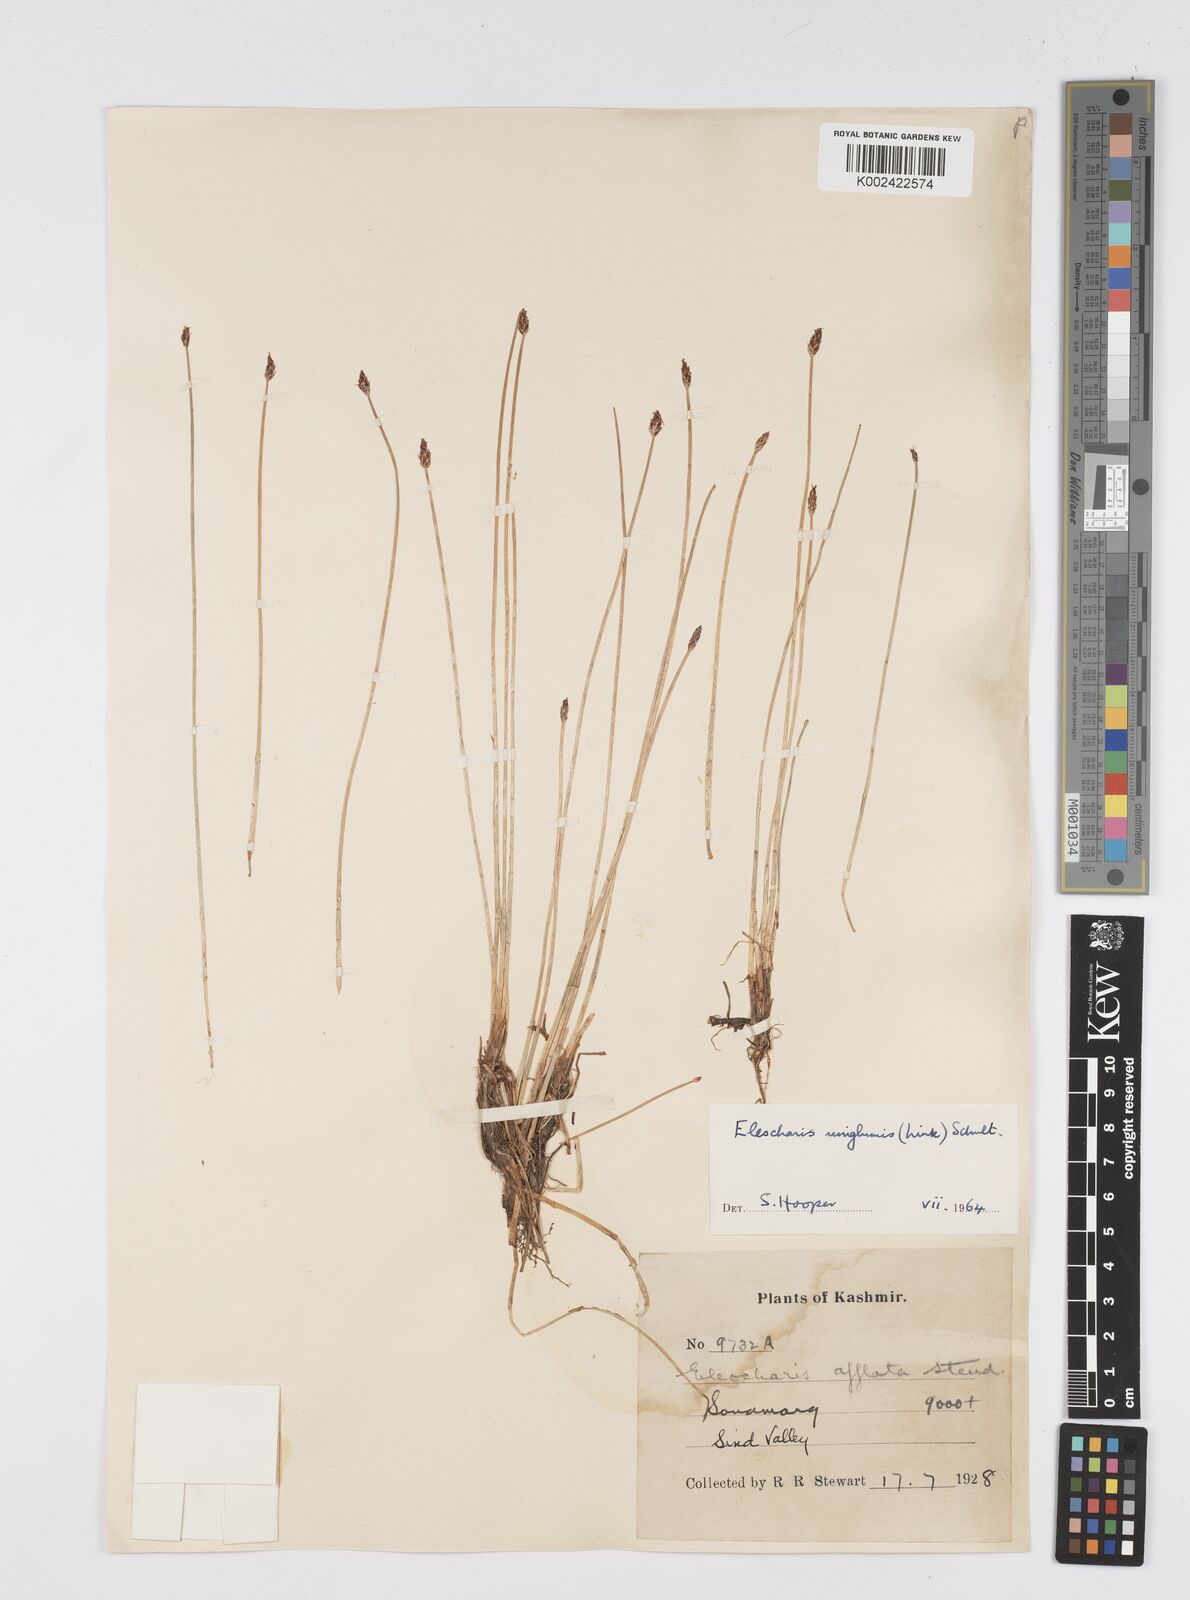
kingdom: Plantae
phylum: Tracheophyta
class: Liliopsida
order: Poales
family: Cyperaceae
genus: Eleocharis
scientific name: Eleocharis uniglumis
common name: Slender spike-rush
